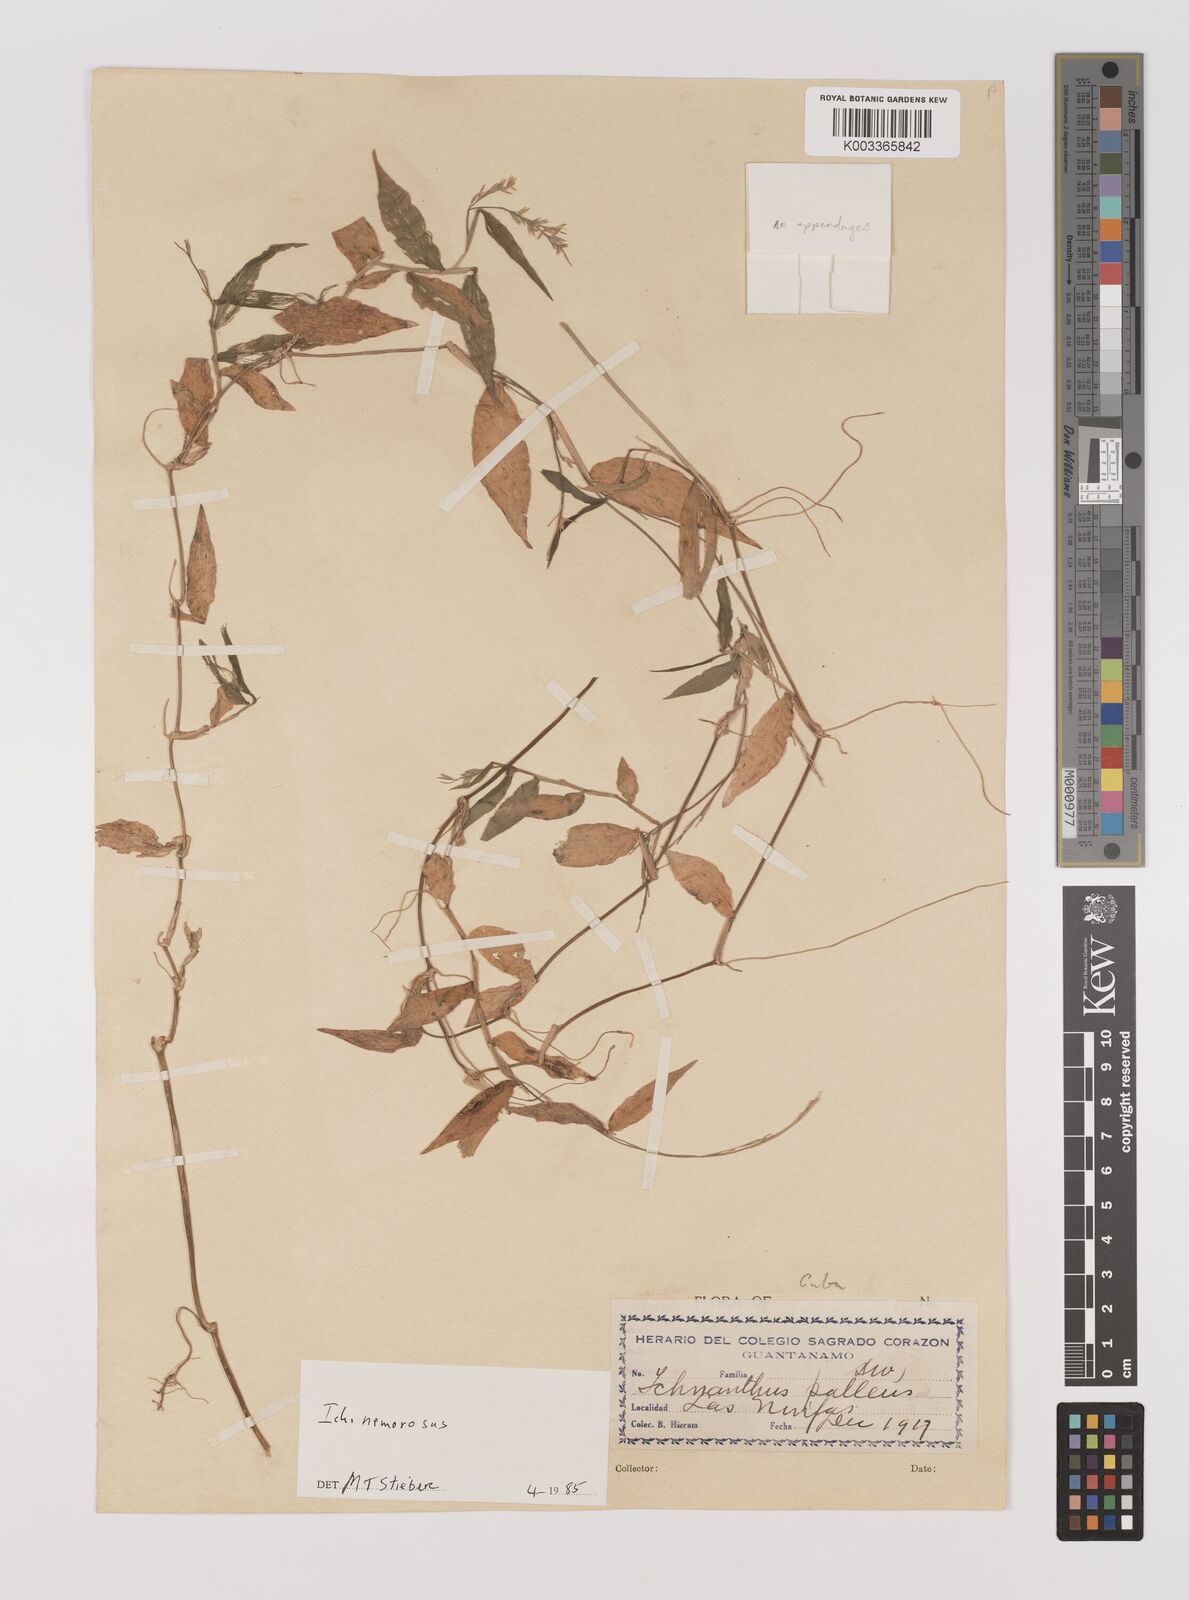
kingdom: Plantae
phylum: Tracheophyta
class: Liliopsida
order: Poales
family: Poaceae
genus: Ichnanthus
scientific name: Ichnanthus nemorosus
